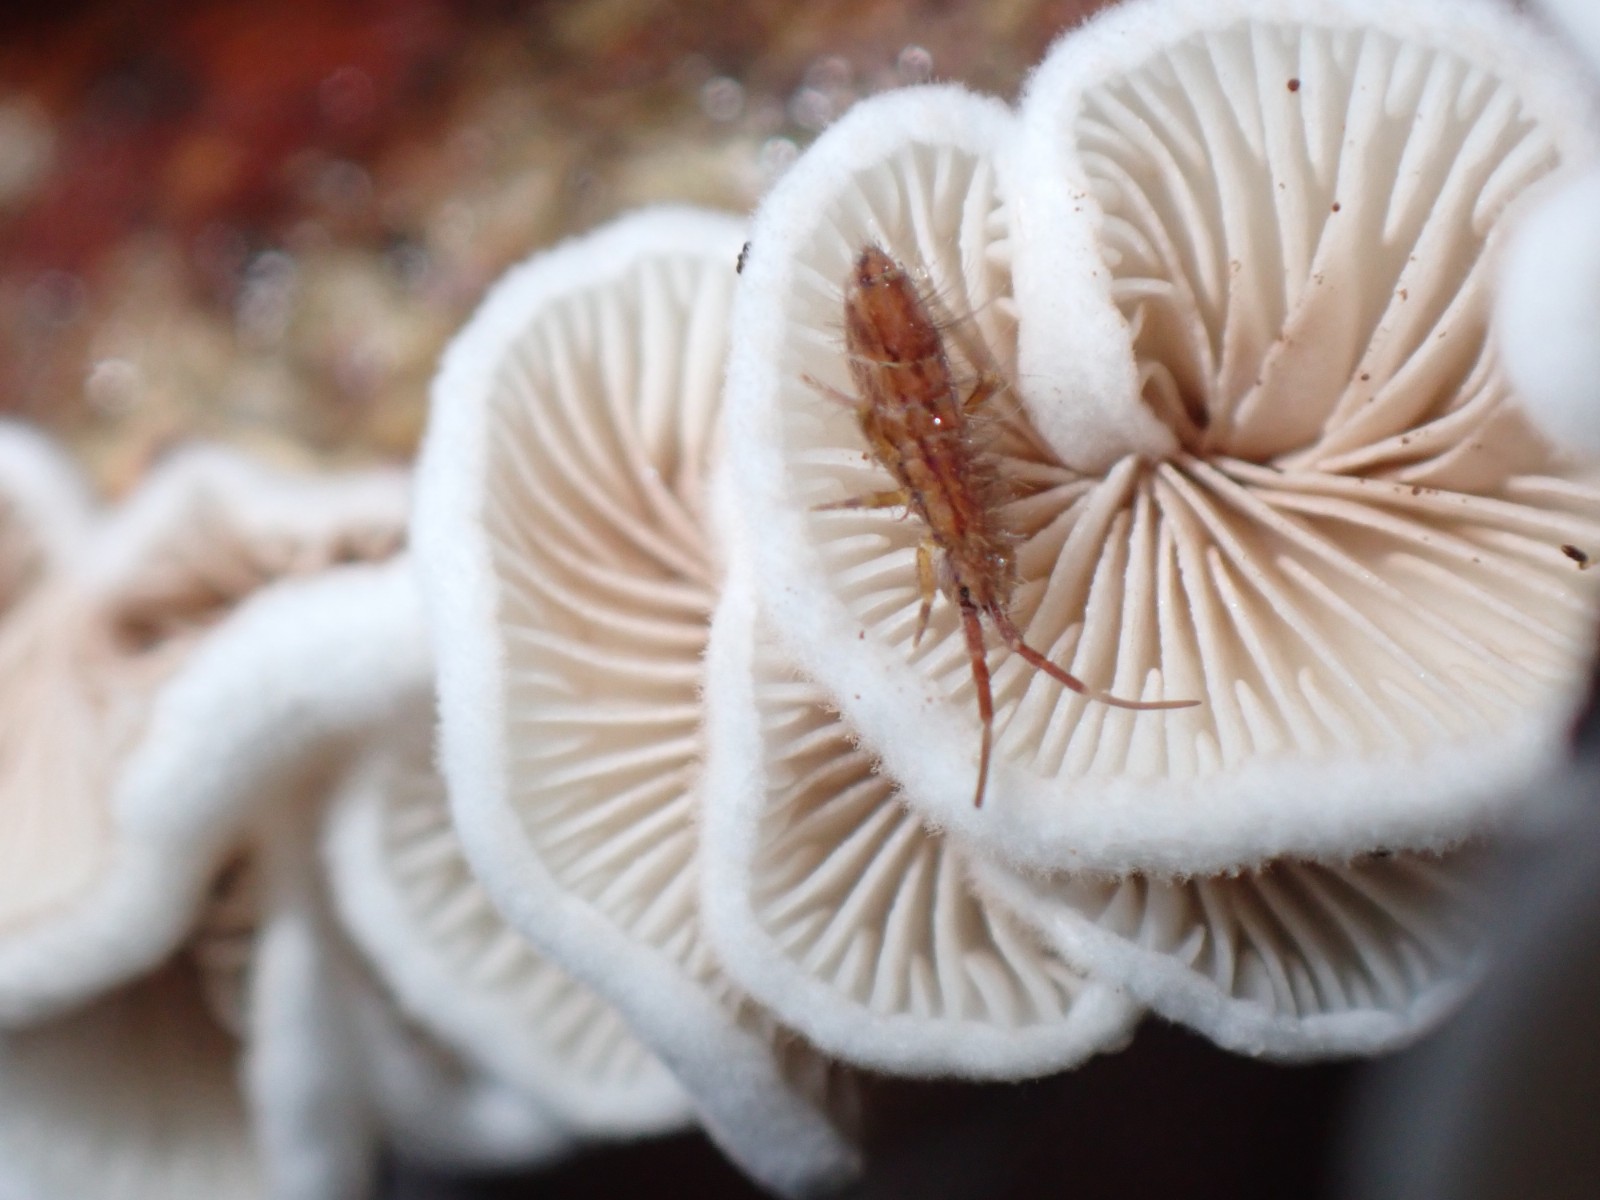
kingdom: Fungi
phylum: Basidiomycota
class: Agaricomycetes
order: Agaricales
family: Crepidotaceae
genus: Crepidotus
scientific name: Crepidotus
